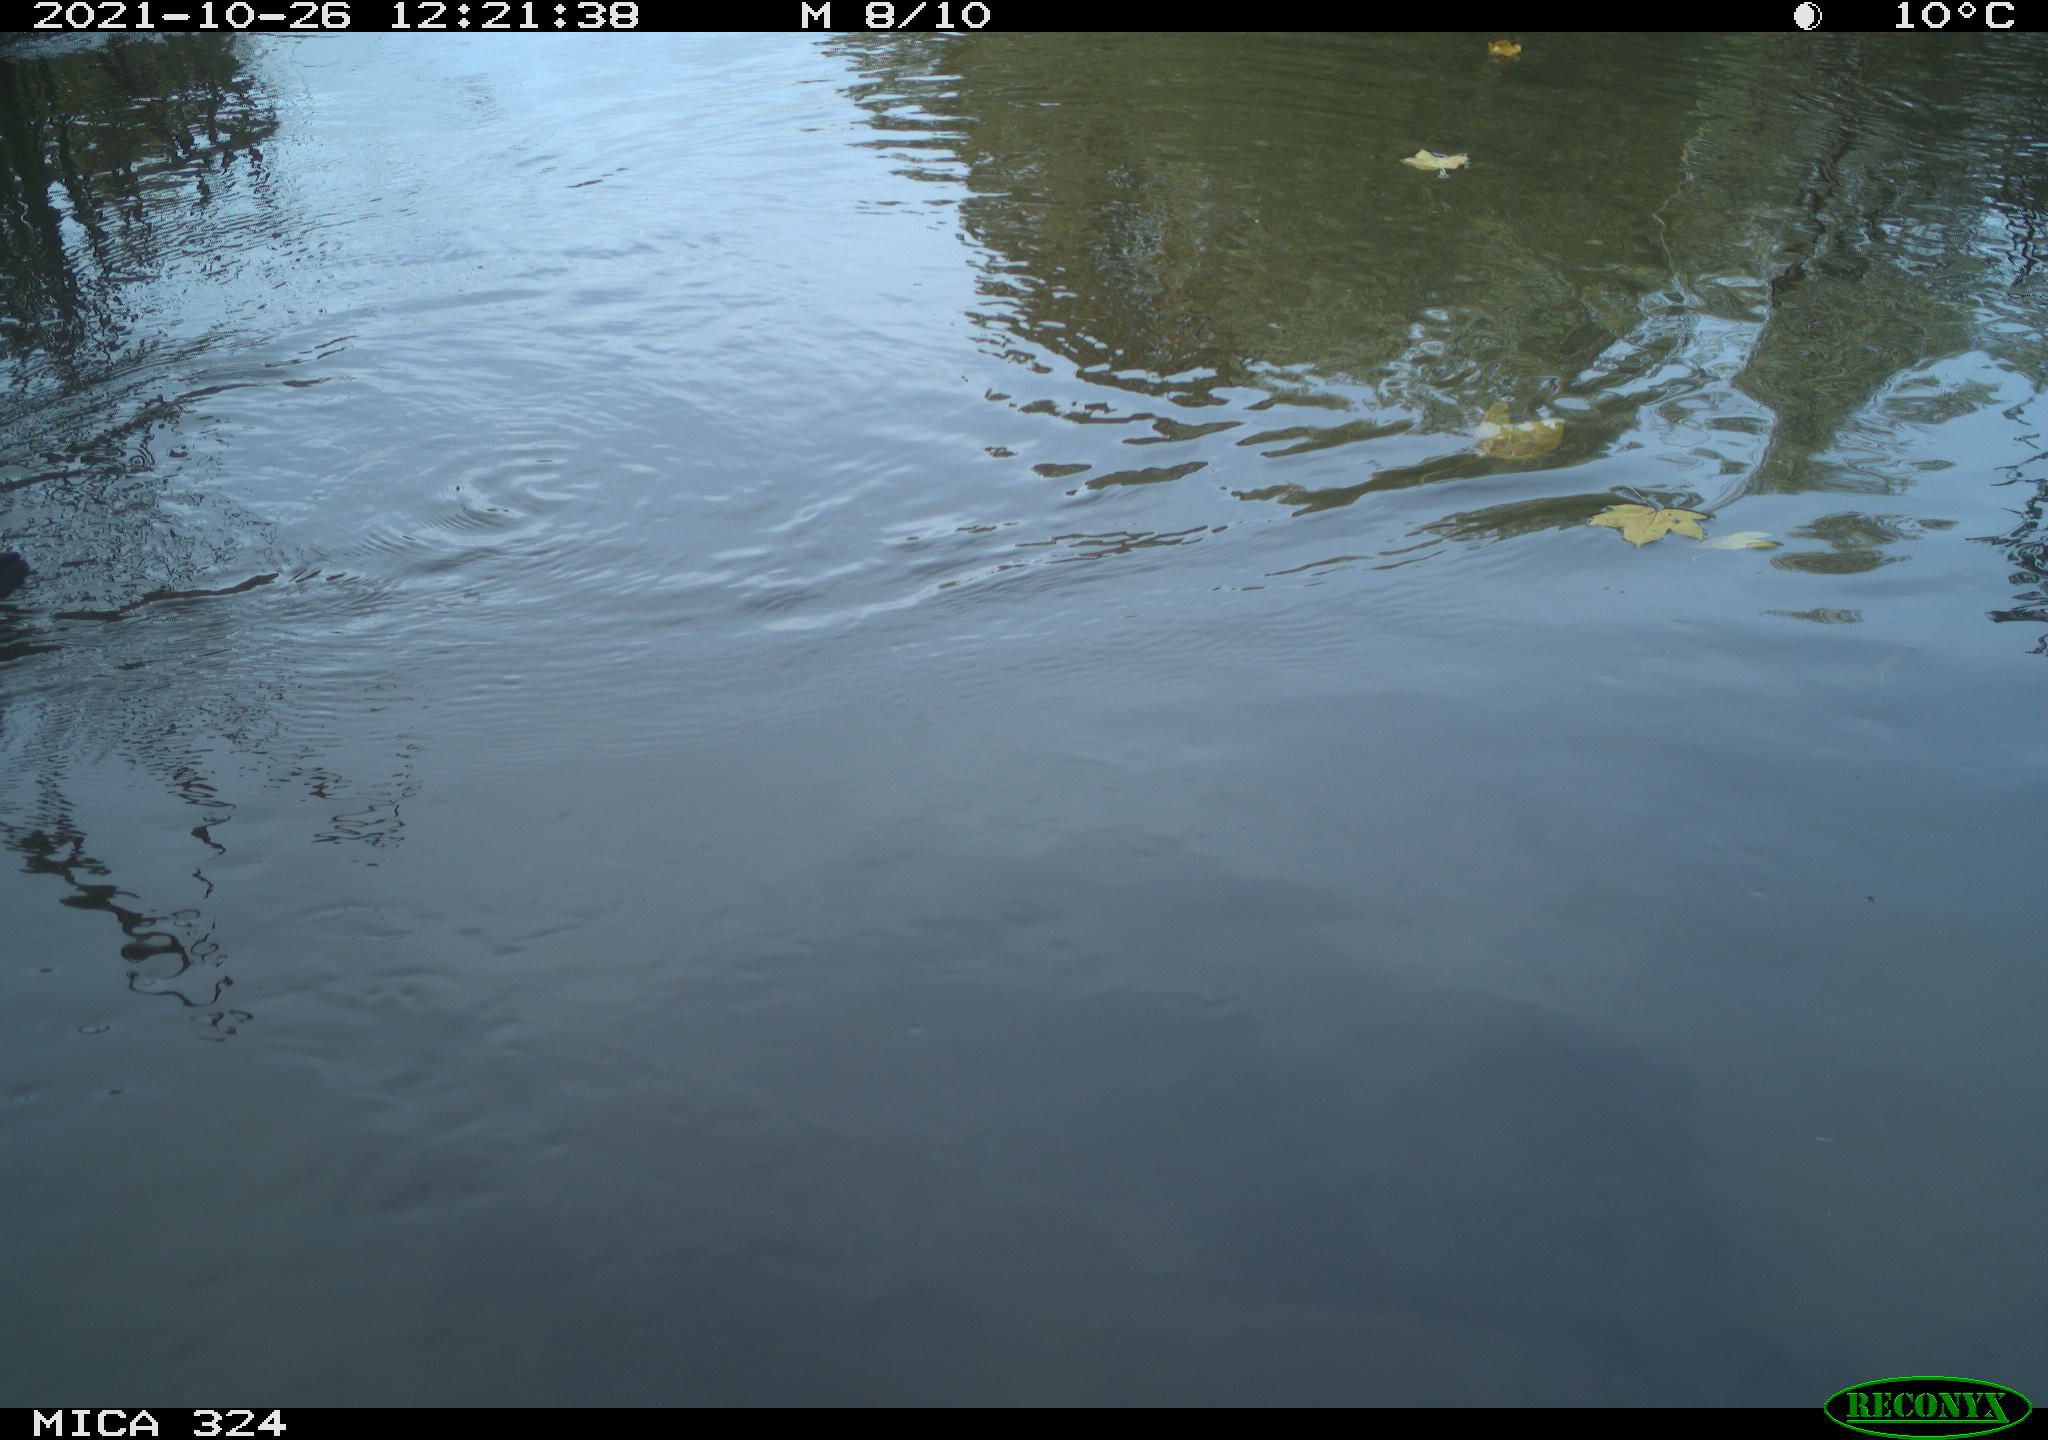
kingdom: Animalia
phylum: Chordata
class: Aves
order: Gruiformes
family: Rallidae
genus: Gallinula
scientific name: Gallinula chloropus
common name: Common moorhen
